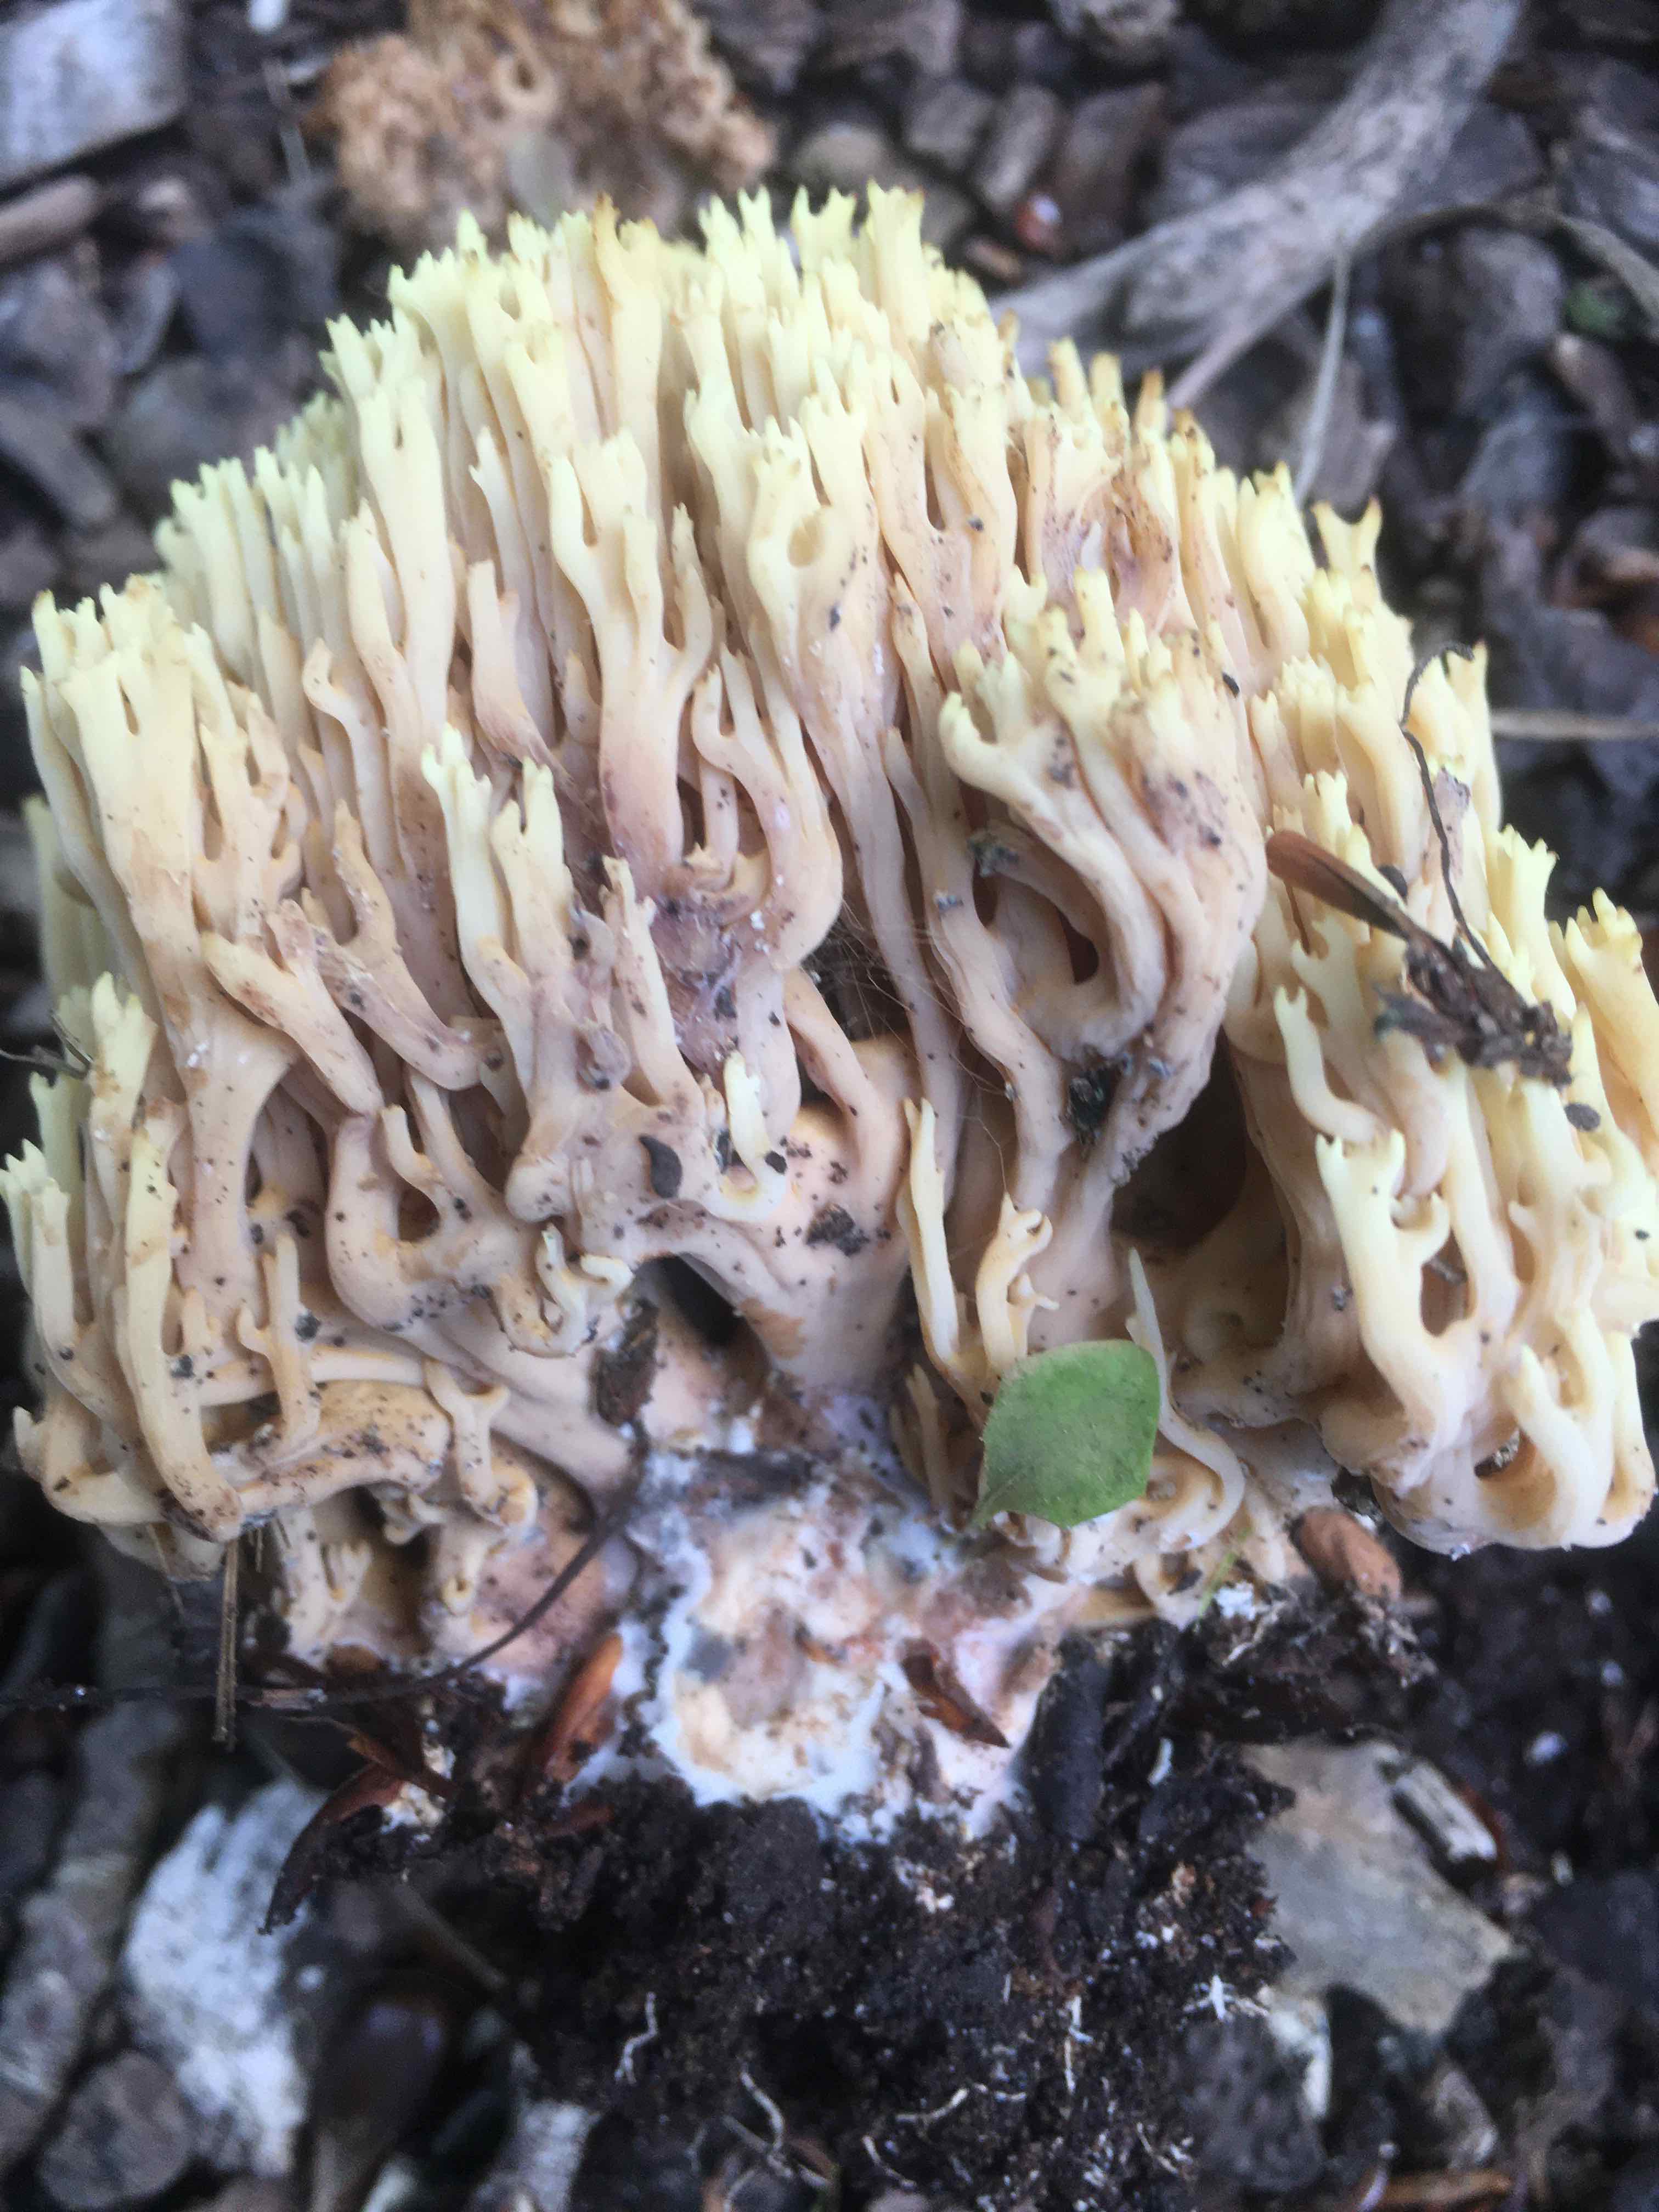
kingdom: Fungi
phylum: Basidiomycota
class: Agaricomycetes
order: Gomphales
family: Gomphaceae
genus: Ramaria
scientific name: Ramaria stricta
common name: rank koralsvamp
